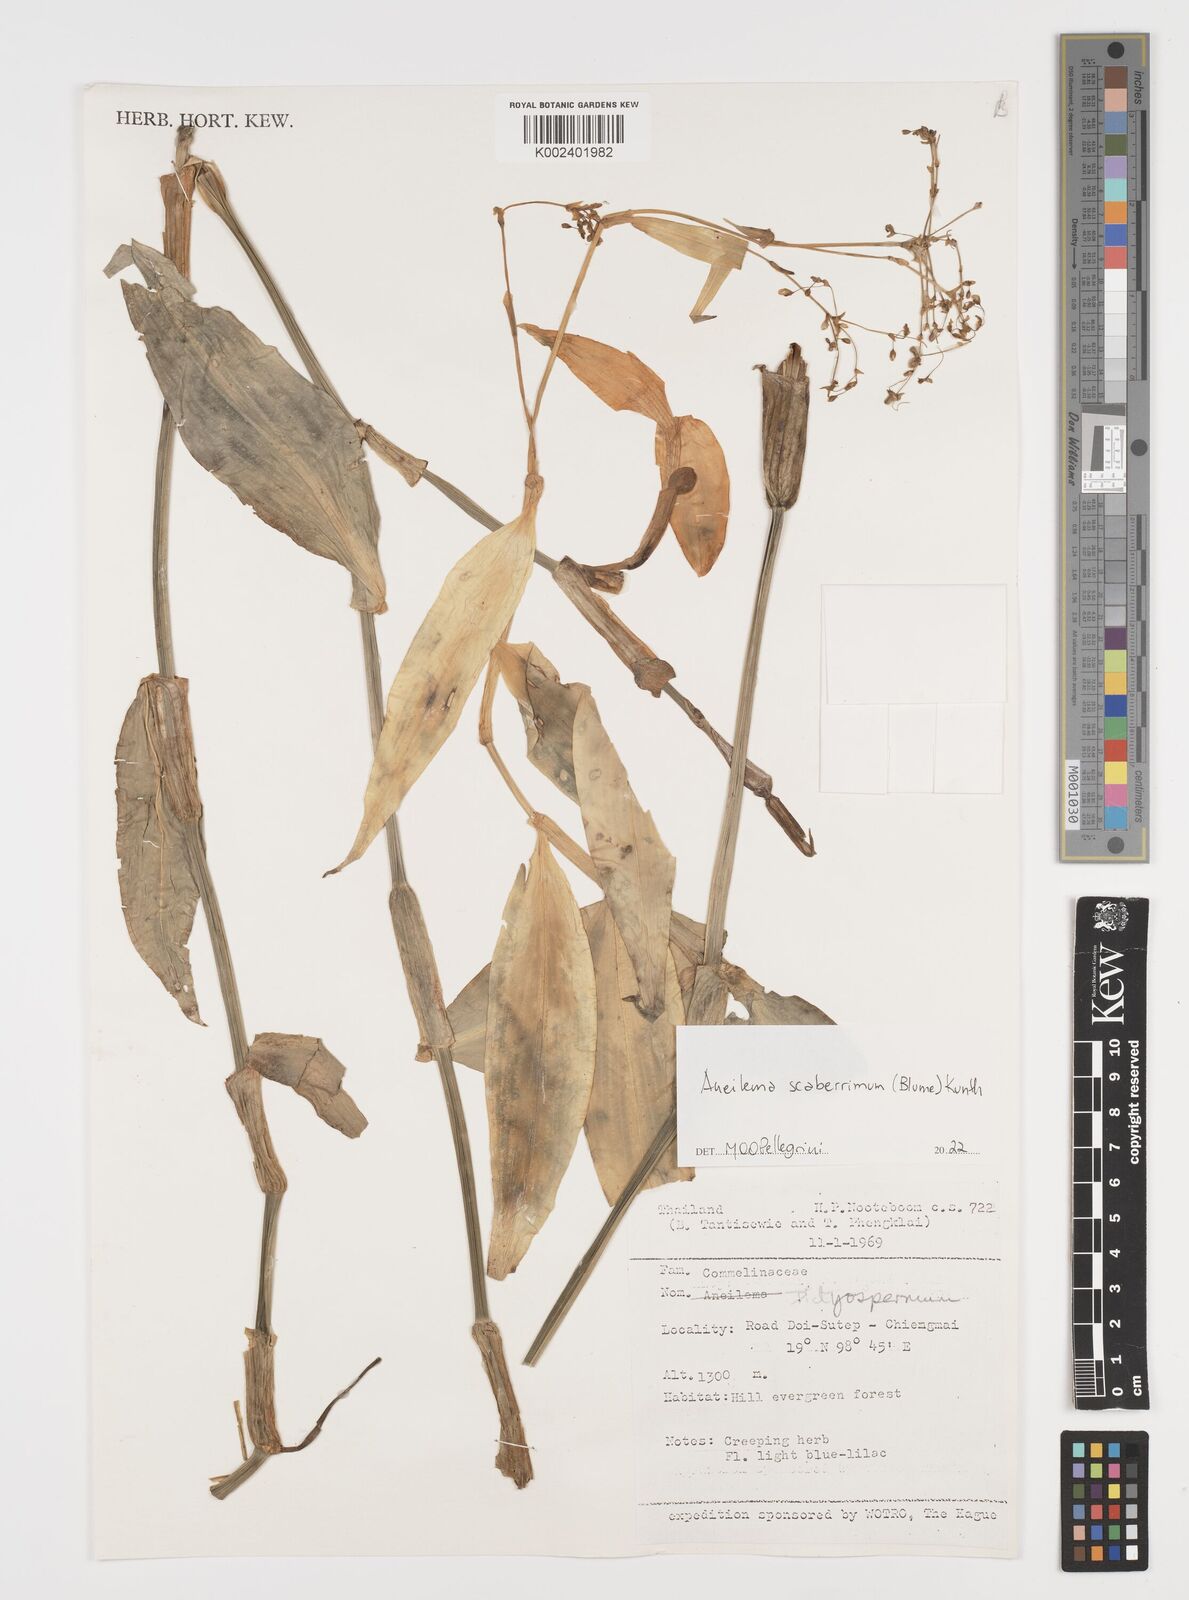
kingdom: Plantae
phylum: Tracheophyta
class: Liliopsida
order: Commelinales
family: Commelinaceae
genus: Rhopalephora
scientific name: Rhopalephora scaberrima
